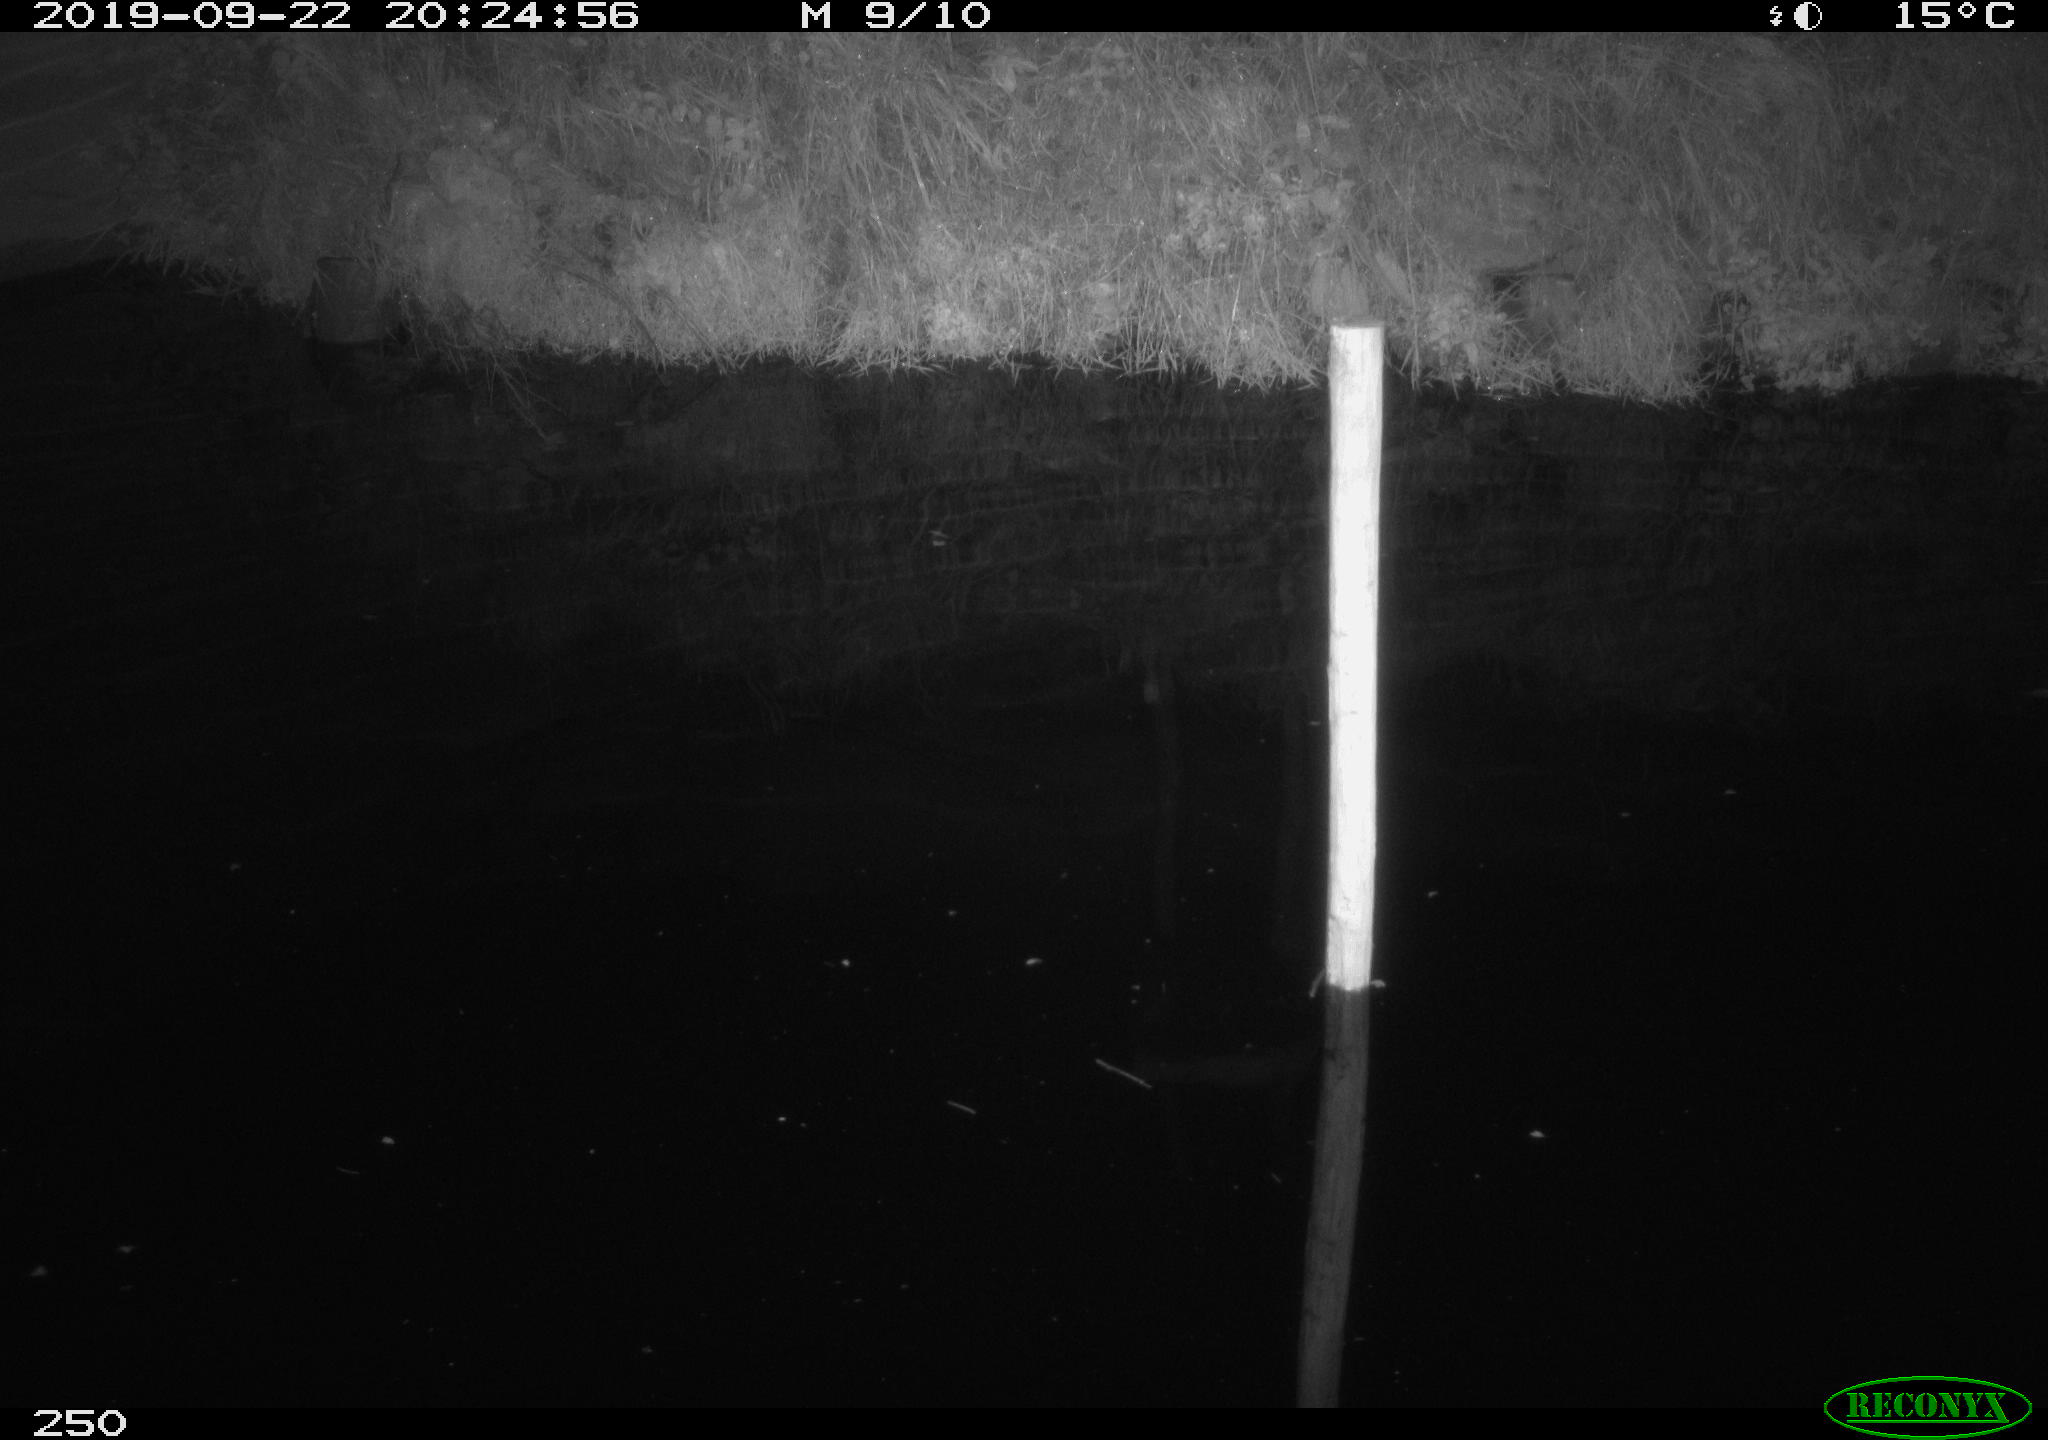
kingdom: Animalia
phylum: Chordata
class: Aves
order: Anseriformes
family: Anatidae
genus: Anas
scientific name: Anas platyrhynchos
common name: Mallard
